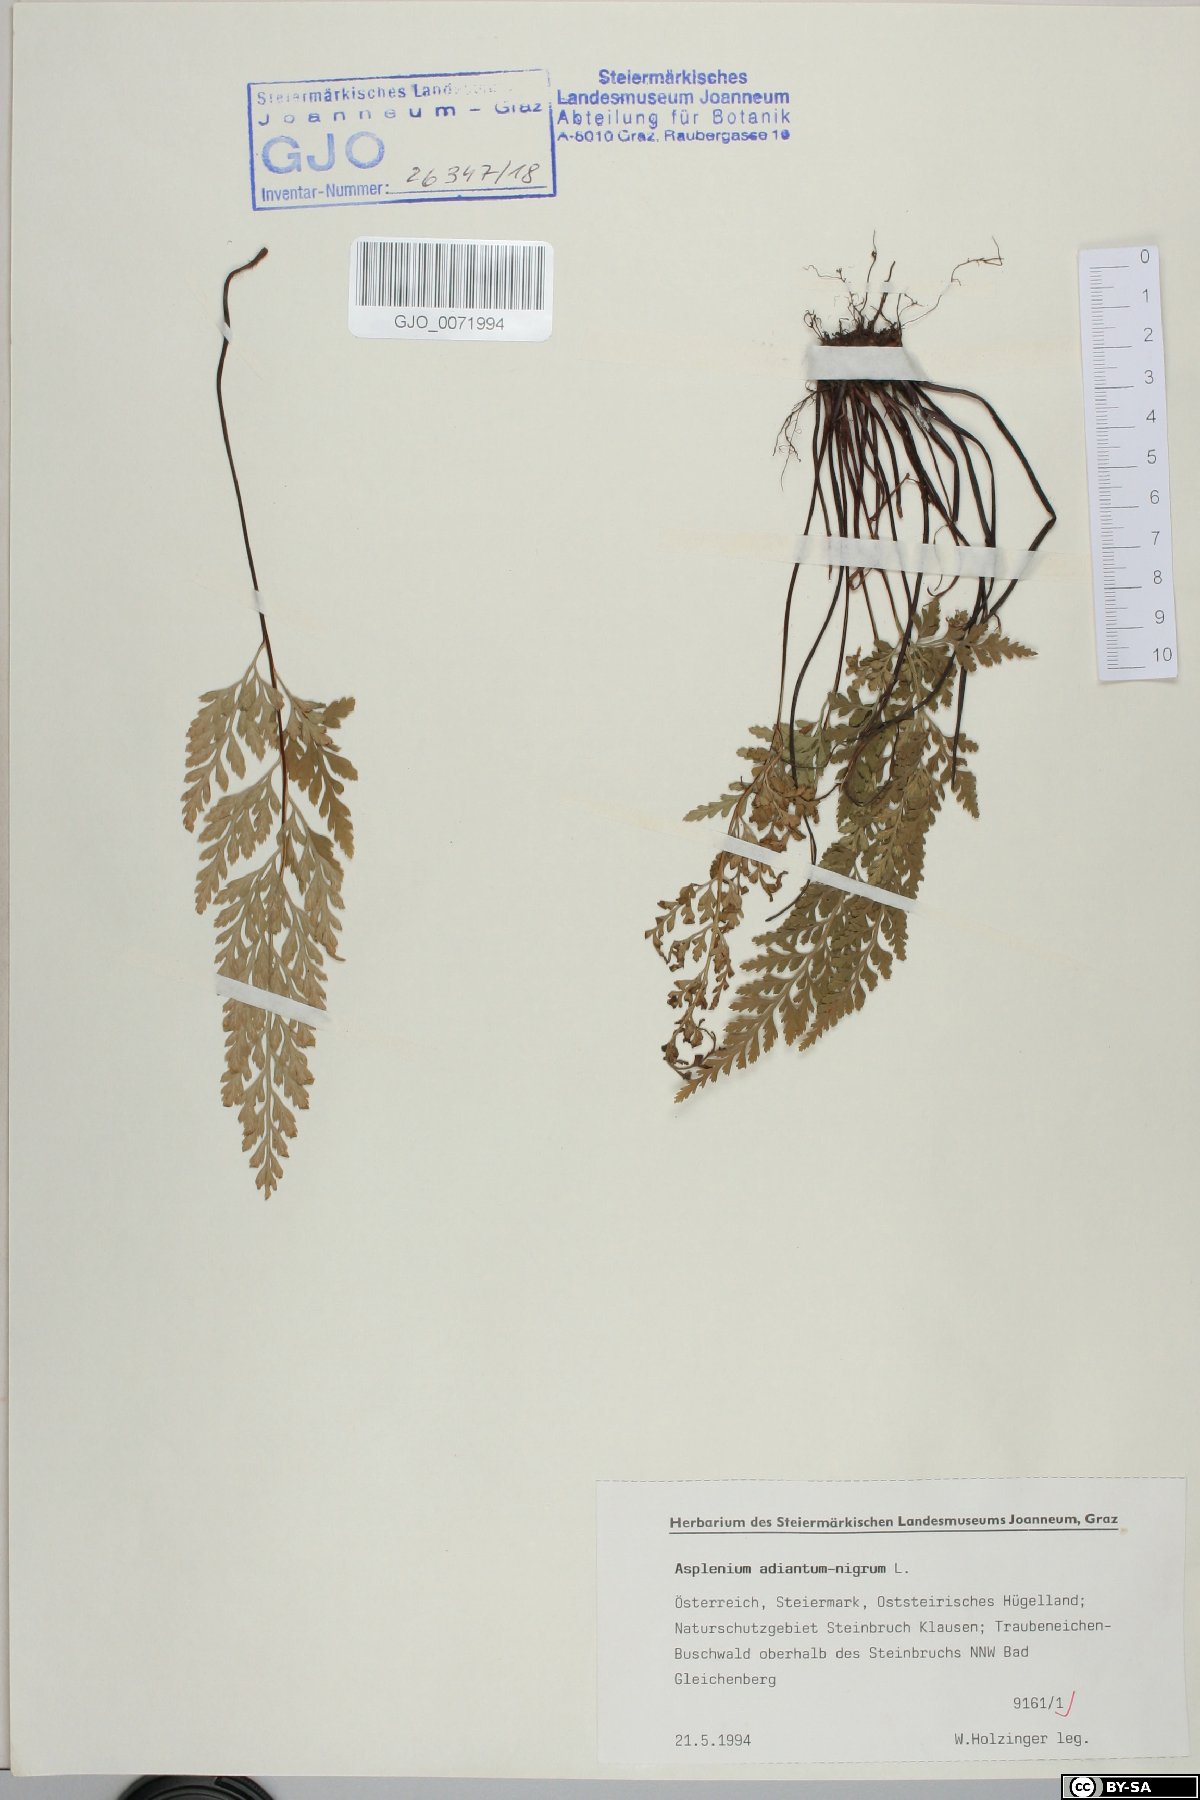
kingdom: Plantae
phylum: Tracheophyta
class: Polypodiopsida
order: Polypodiales
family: Aspleniaceae
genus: Asplenium
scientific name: Asplenium adiantum-nigrum
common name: Black spleenwort
